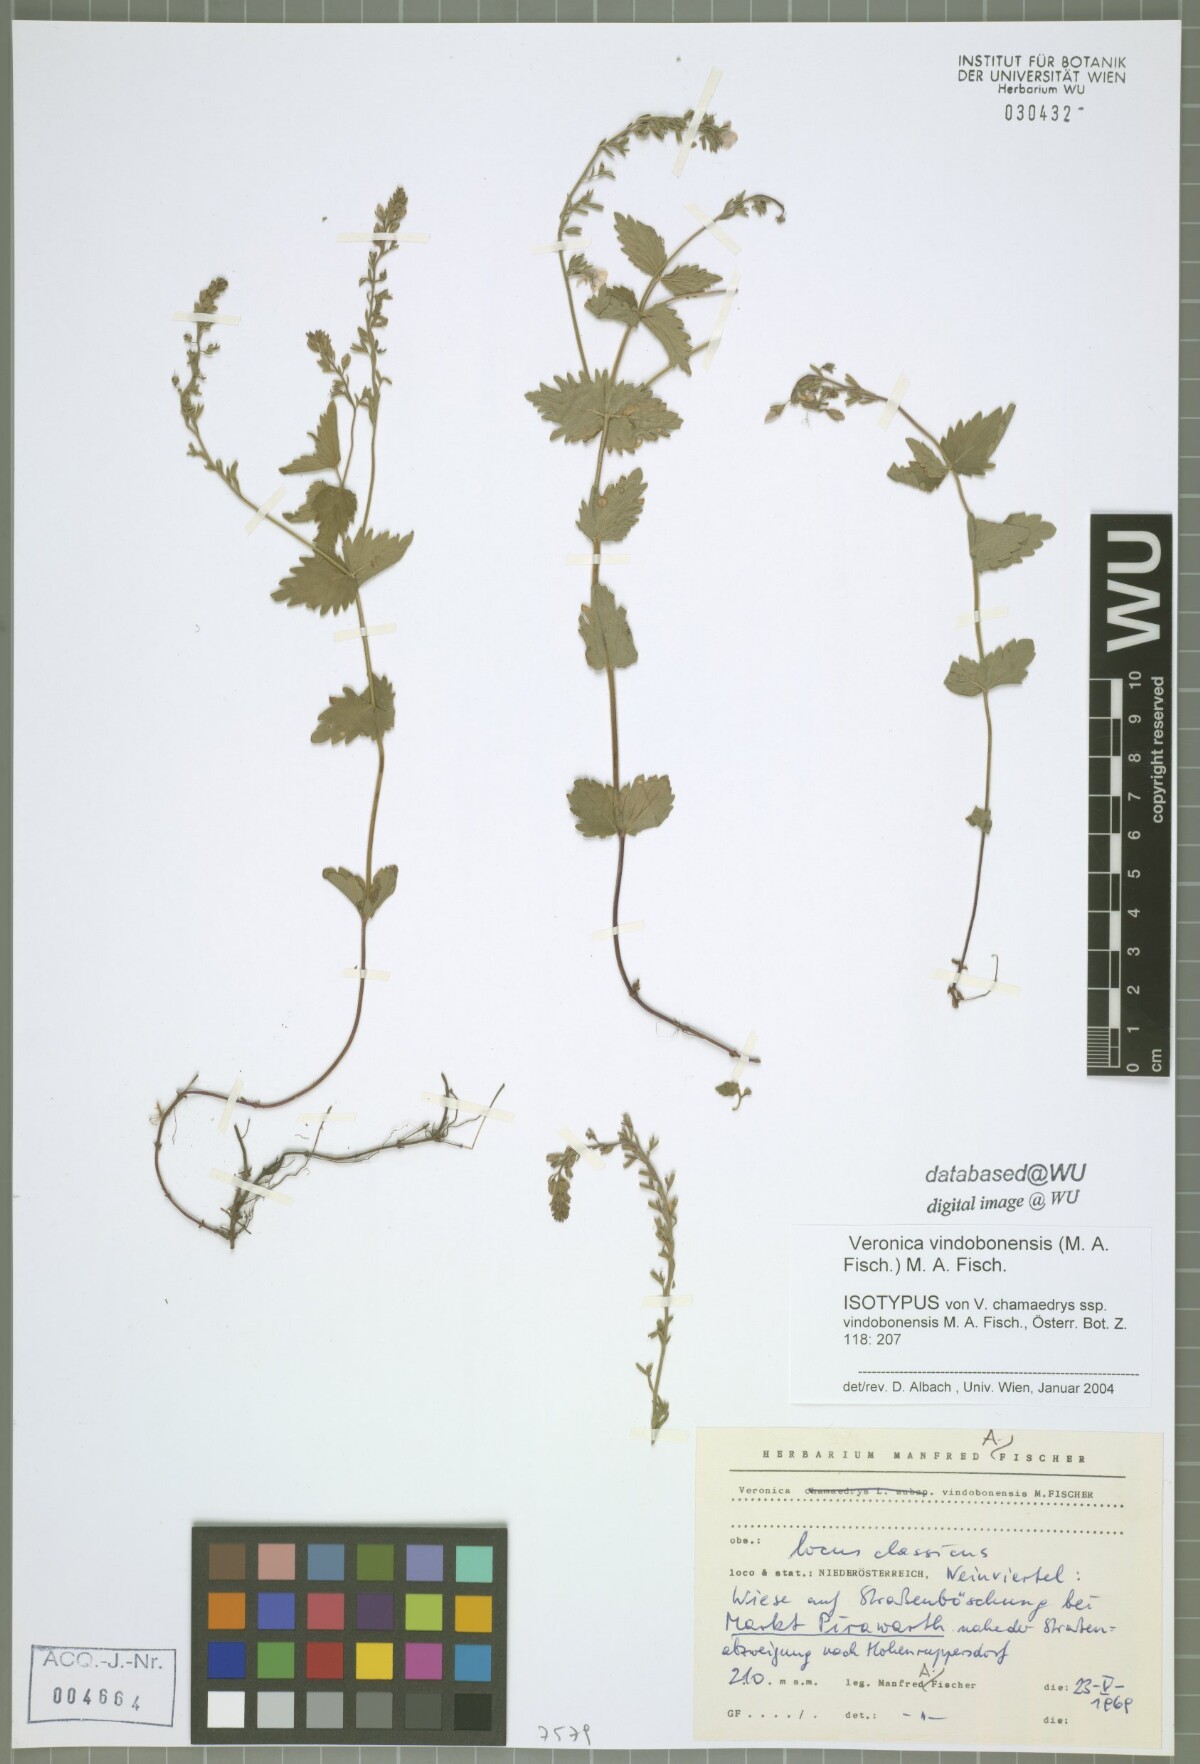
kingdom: Plantae
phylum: Tracheophyta
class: Magnoliopsida
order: Lamiales
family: Plantaginaceae
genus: Veronica
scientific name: Veronica vindobonensis
